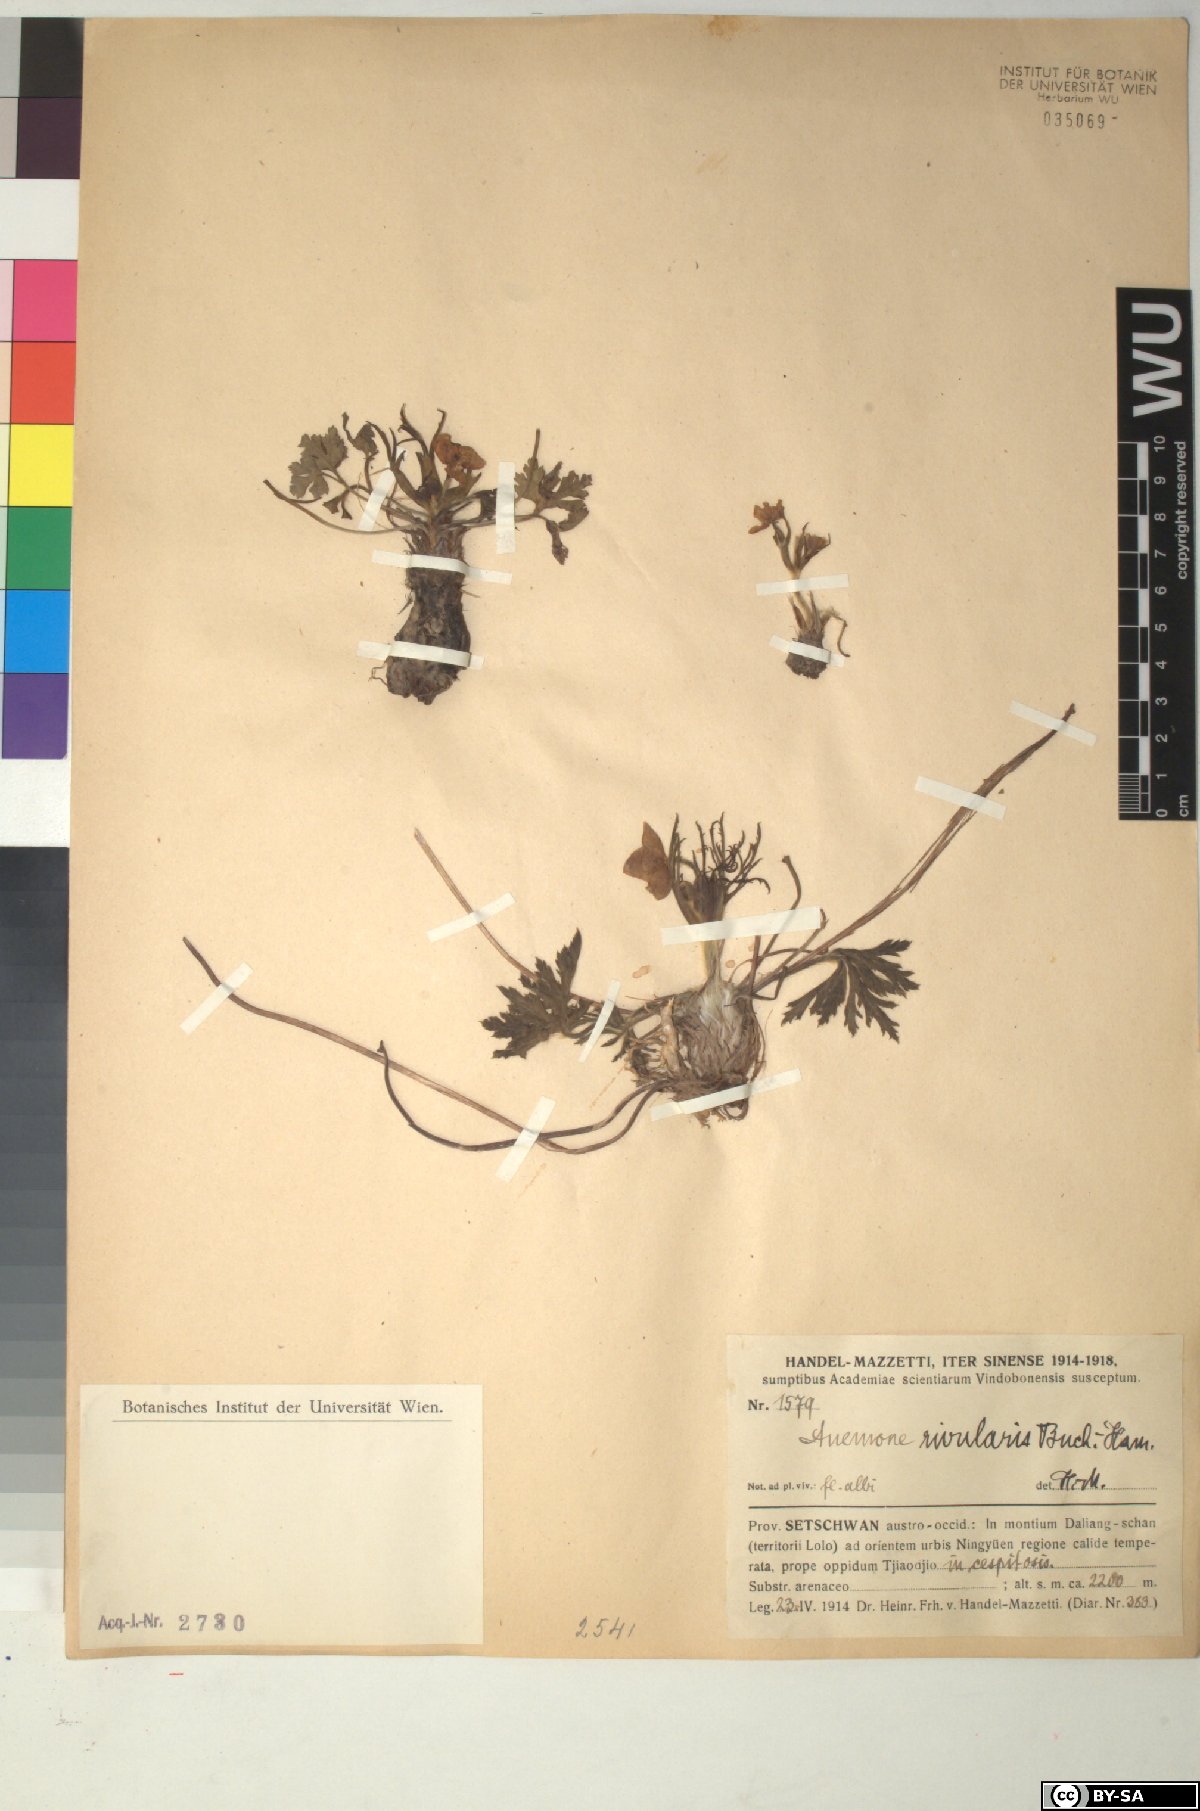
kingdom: Plantae
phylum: Tracheophyta
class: Magnoliopsida
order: Ranunculales
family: Ranunculaceae
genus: Eriocapitella
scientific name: Eriocapitella rivularis
